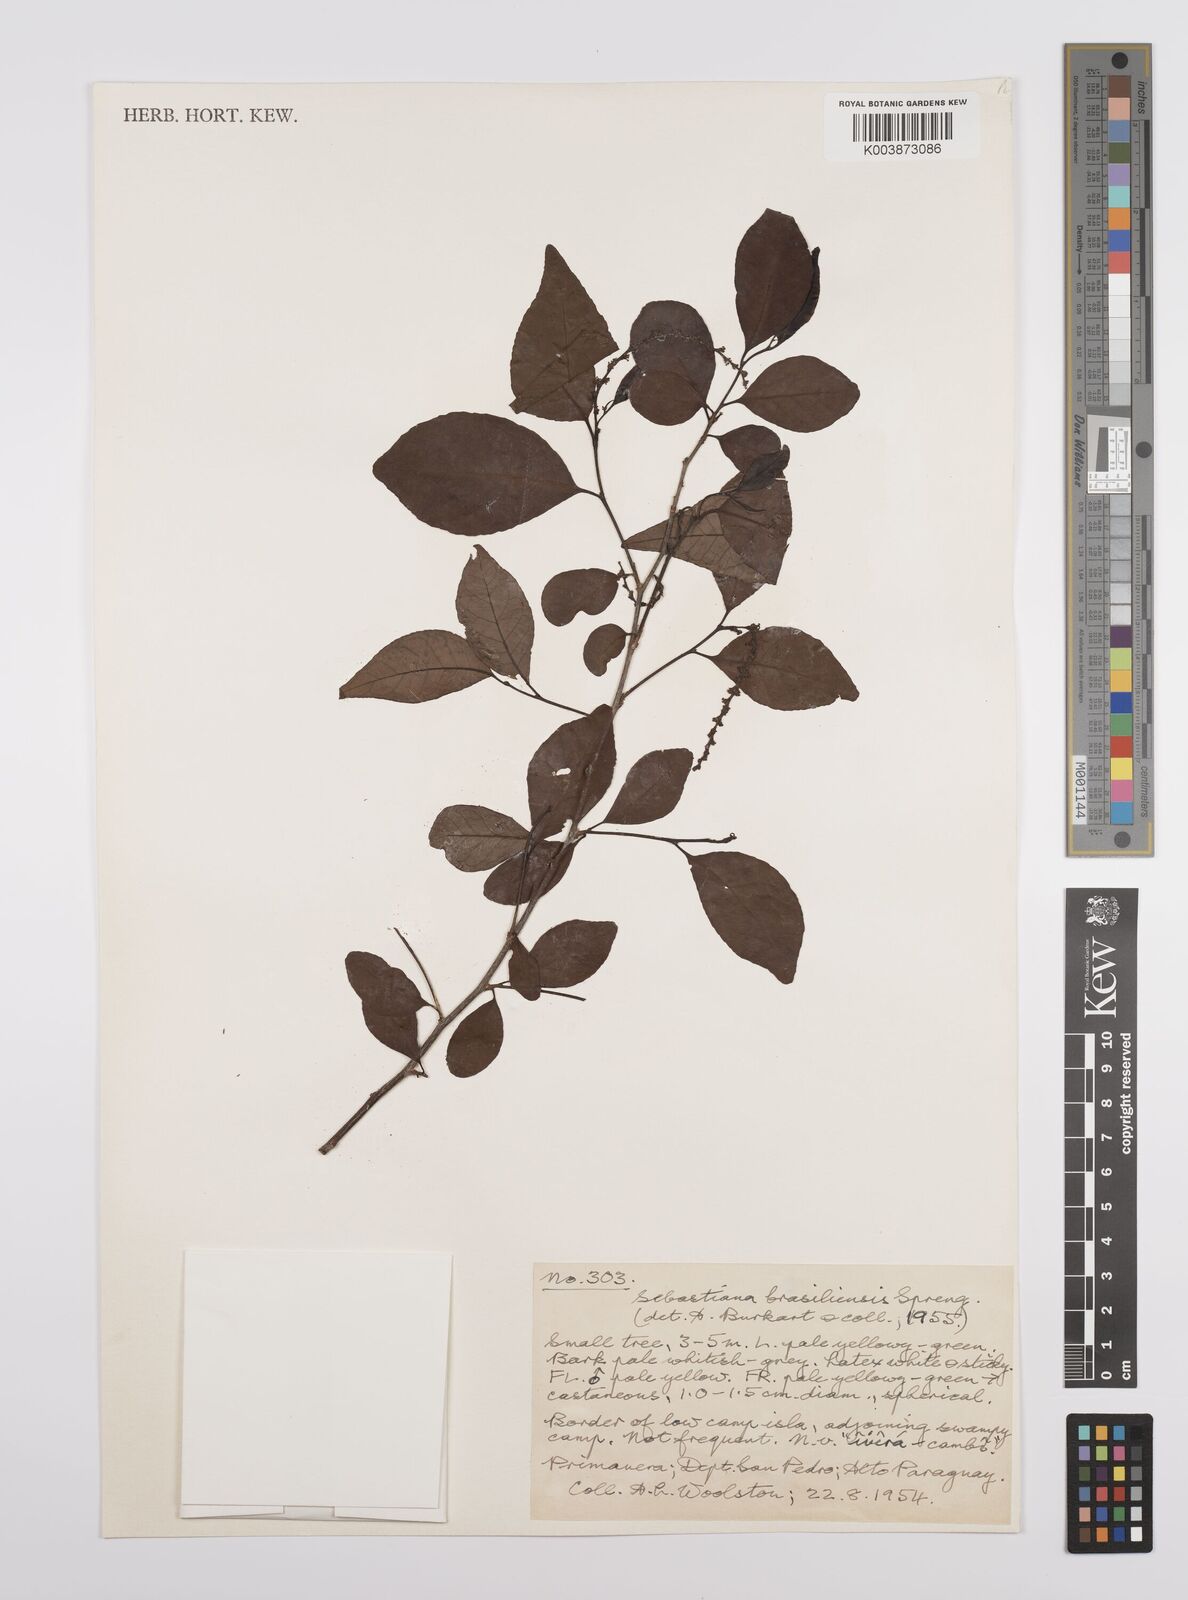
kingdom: Plantae
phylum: Tracheophyta
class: Magnoliopsida
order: Malpighiales
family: Euphorbiaceae
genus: Sebastiania
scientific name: Sebastiania brasiliensis
